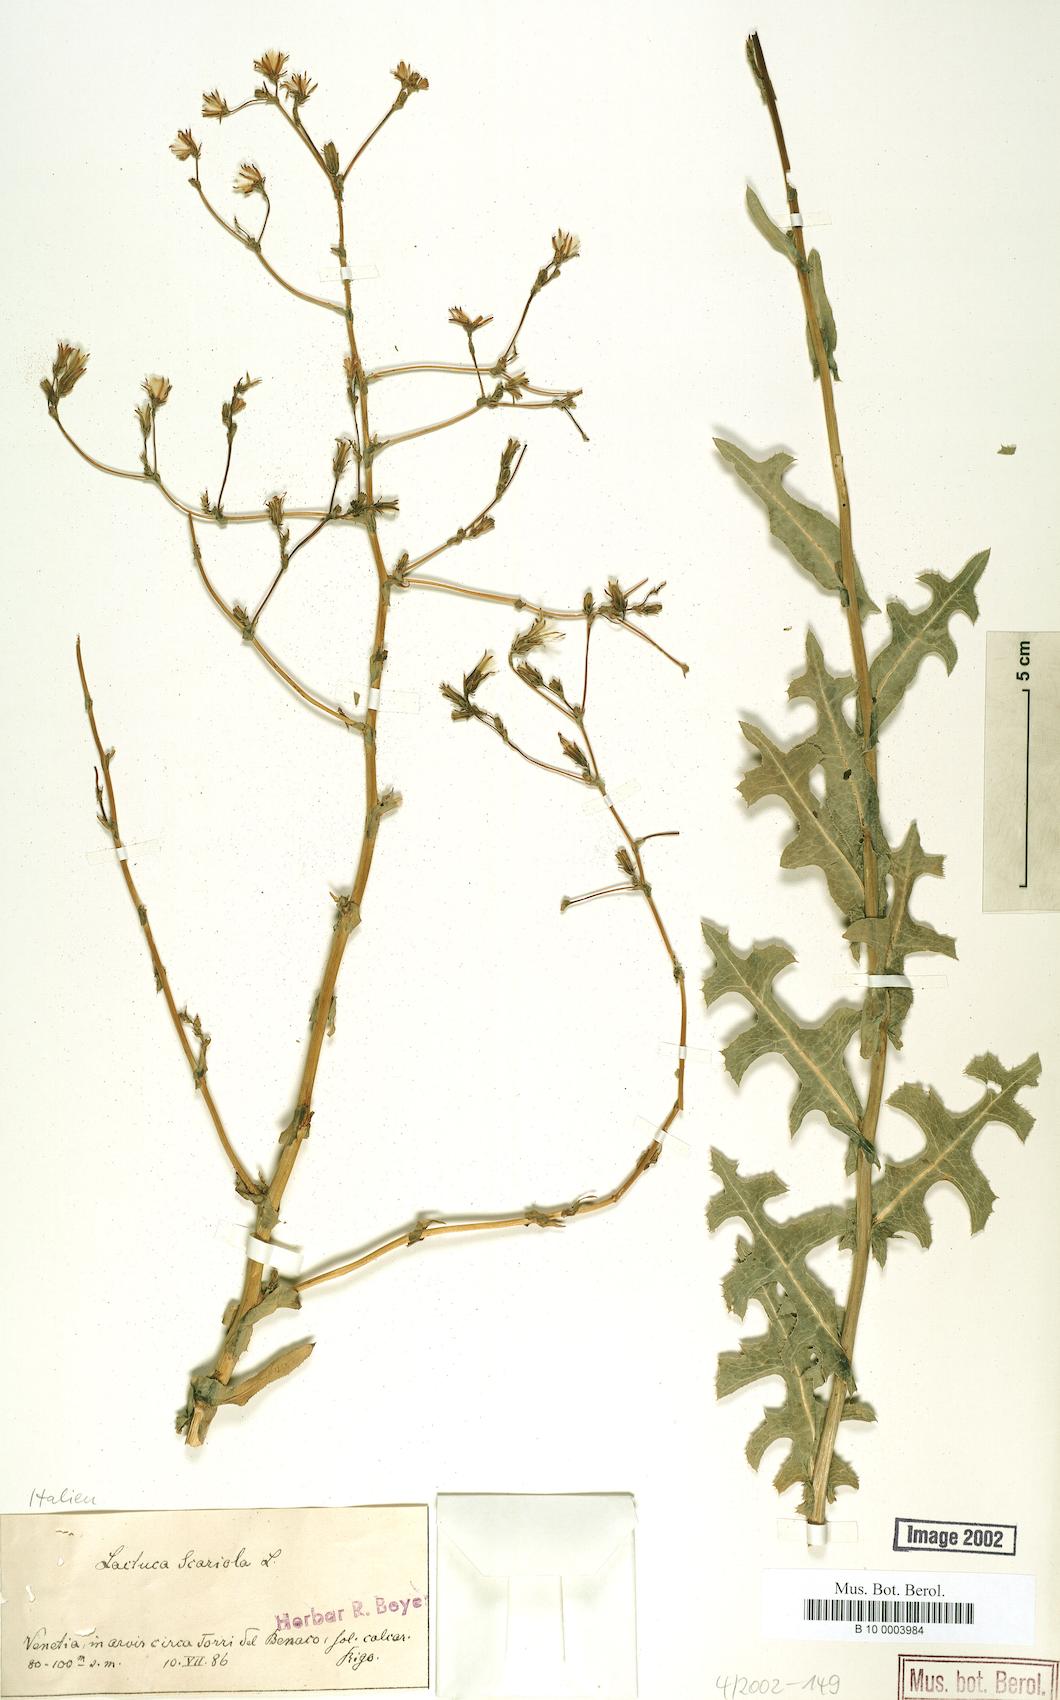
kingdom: Plantae
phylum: Tracheophyta
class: Magnoliopsida
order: Asterales
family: Asteraceae
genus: Lactuca
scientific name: Lactuca serriola
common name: Prickly lettuce
